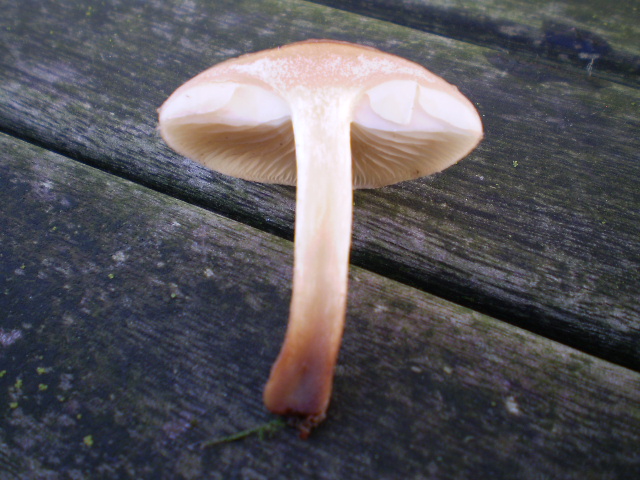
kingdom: Fungi
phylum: Basidiomycota
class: Agaricomycetes
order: Agaricales
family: Strophariaceae
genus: Pholiota
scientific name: Pholiota lenta
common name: løv-skælhat
